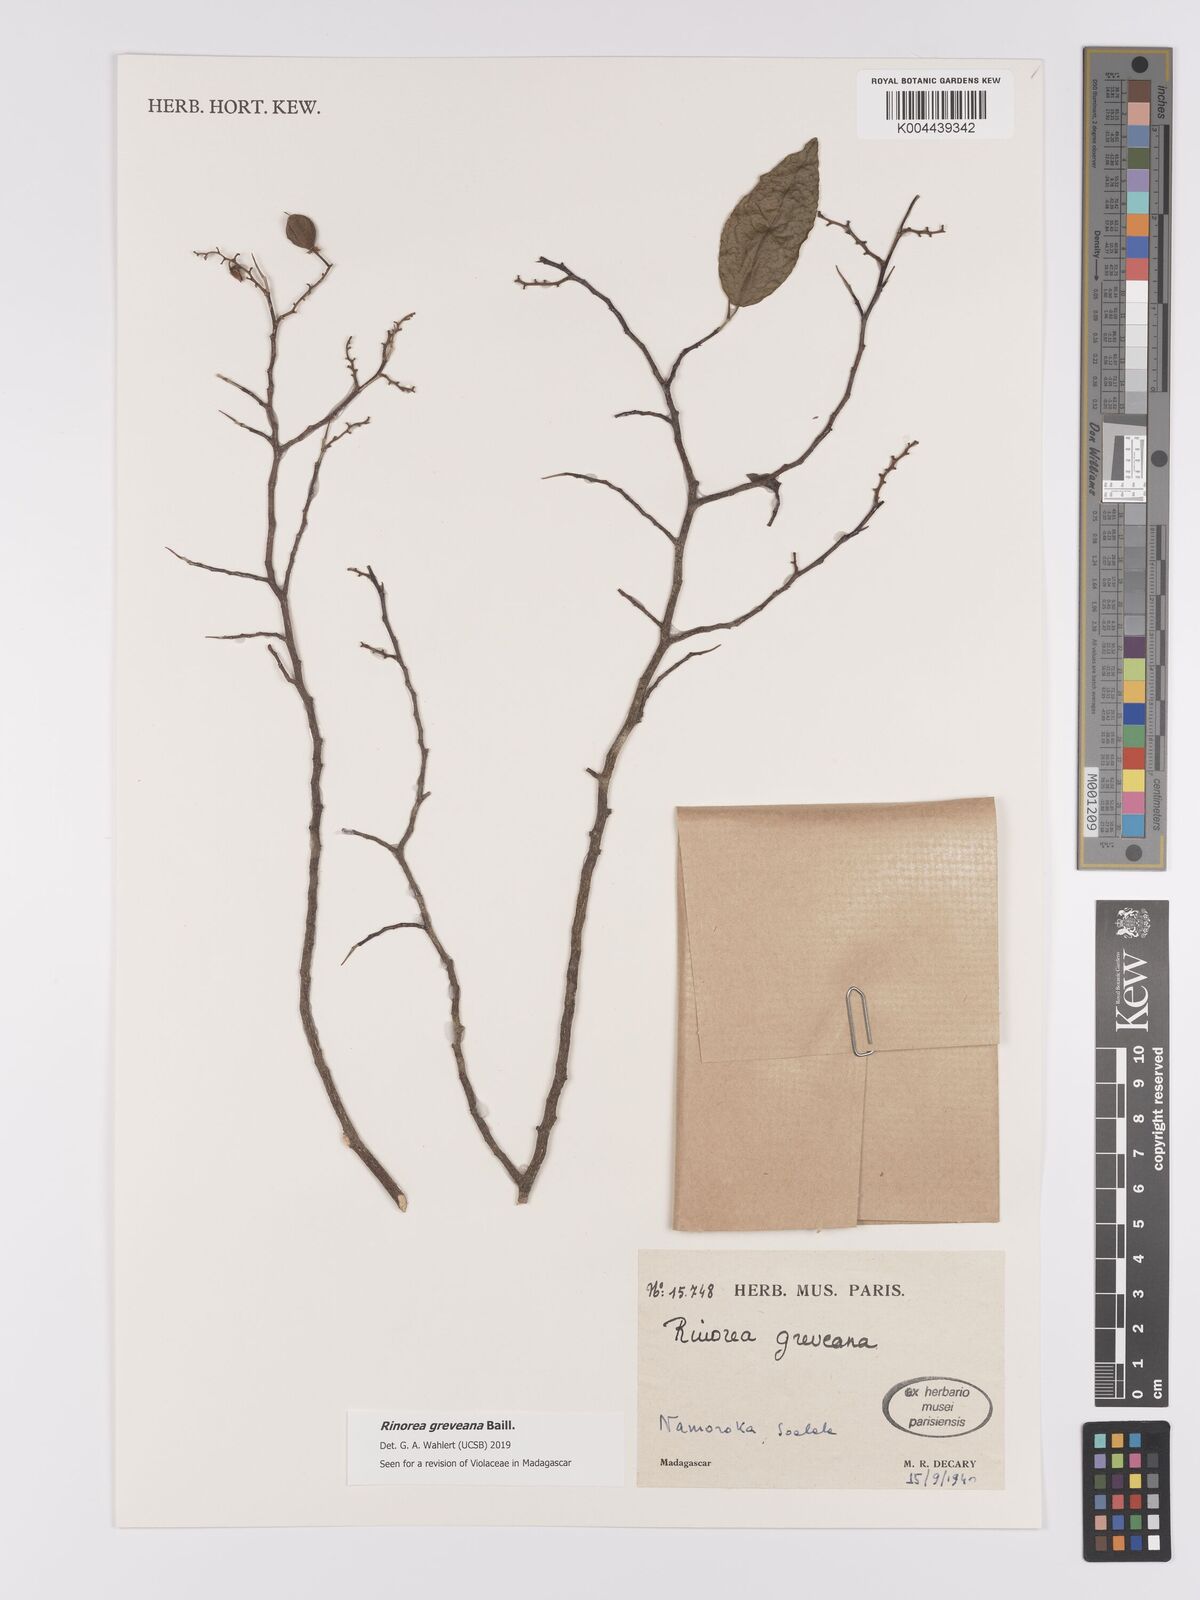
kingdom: Plantae
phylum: Tracheophyta
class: Magnoliopsida
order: Malpighiales
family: Violaceae
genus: Rinorea
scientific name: Rinorea greveana
